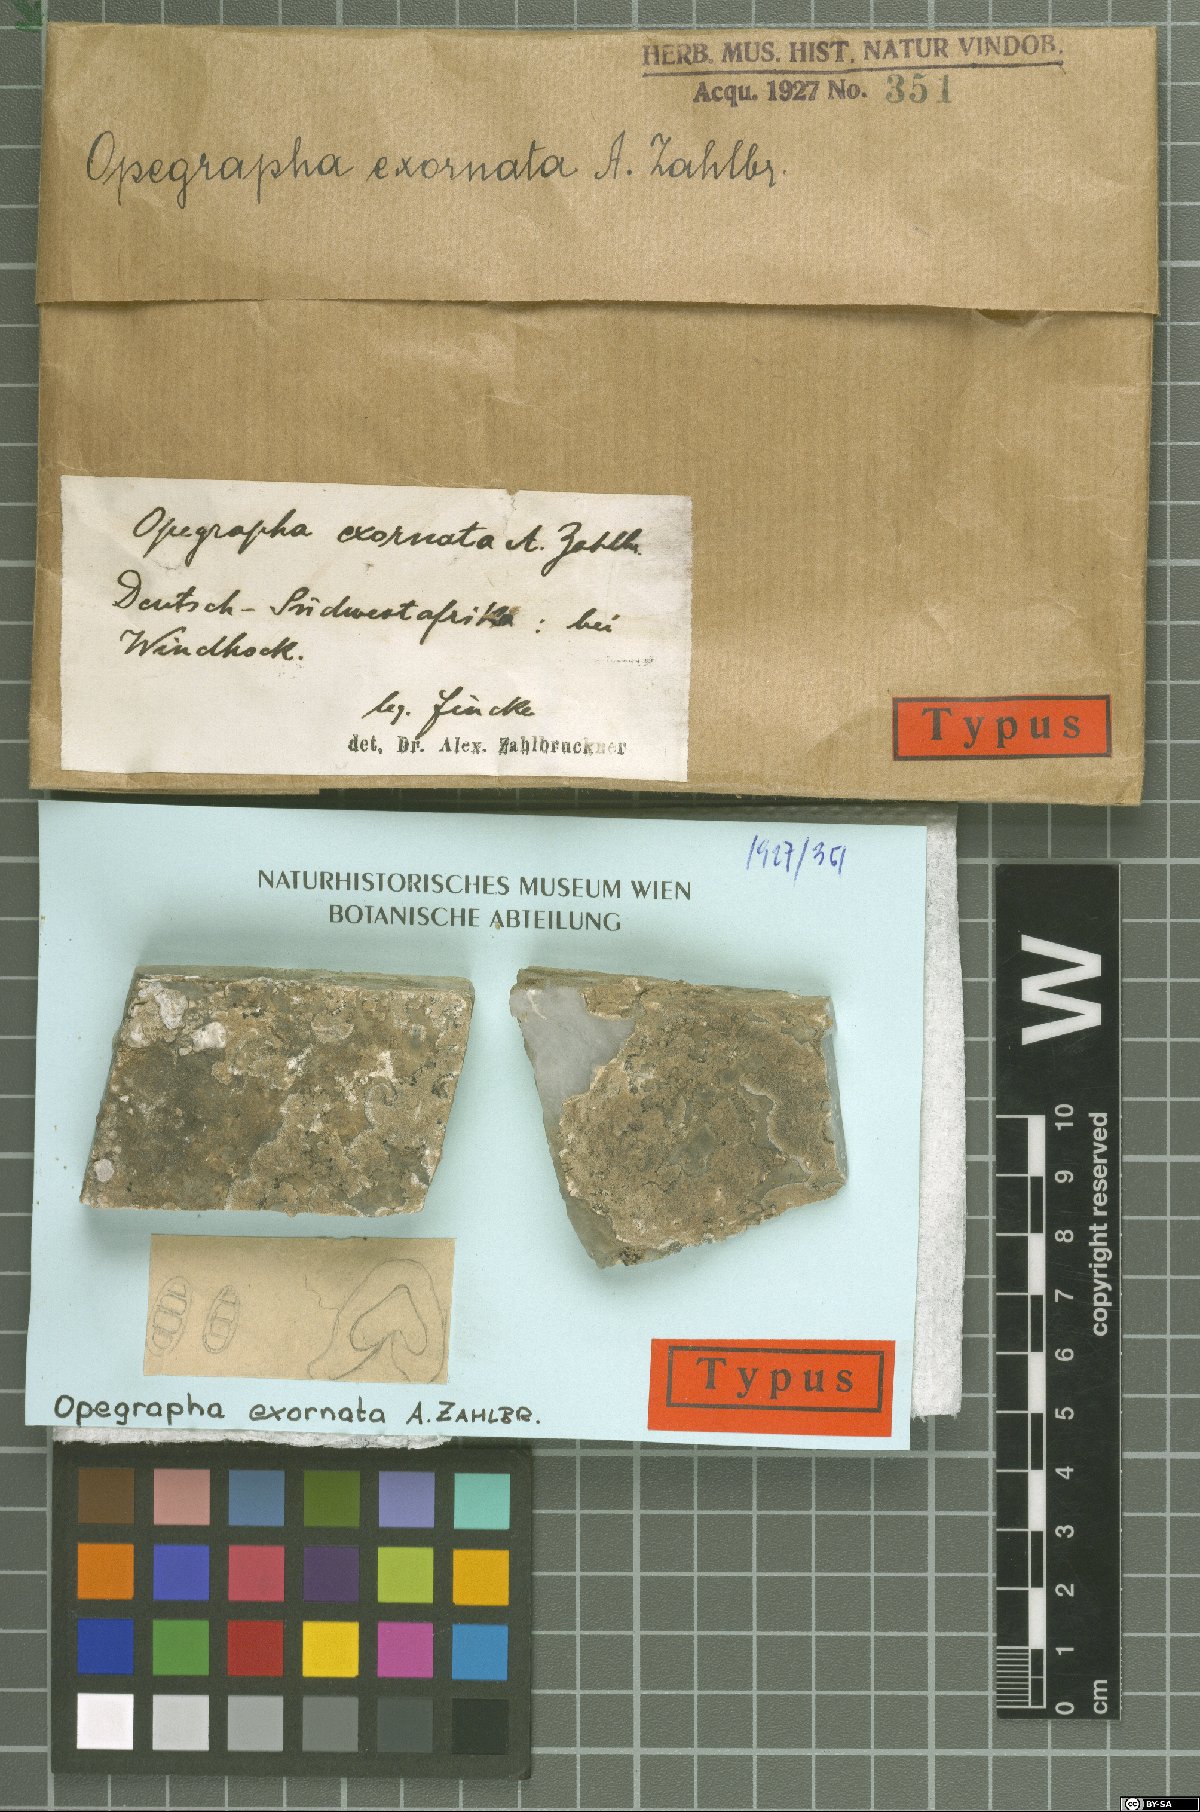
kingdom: Fungi
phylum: Ascomycota
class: Arthoniomycetes
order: Arthoniales
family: Opegraphaceae
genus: Opegrapha
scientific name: Opegrapha
